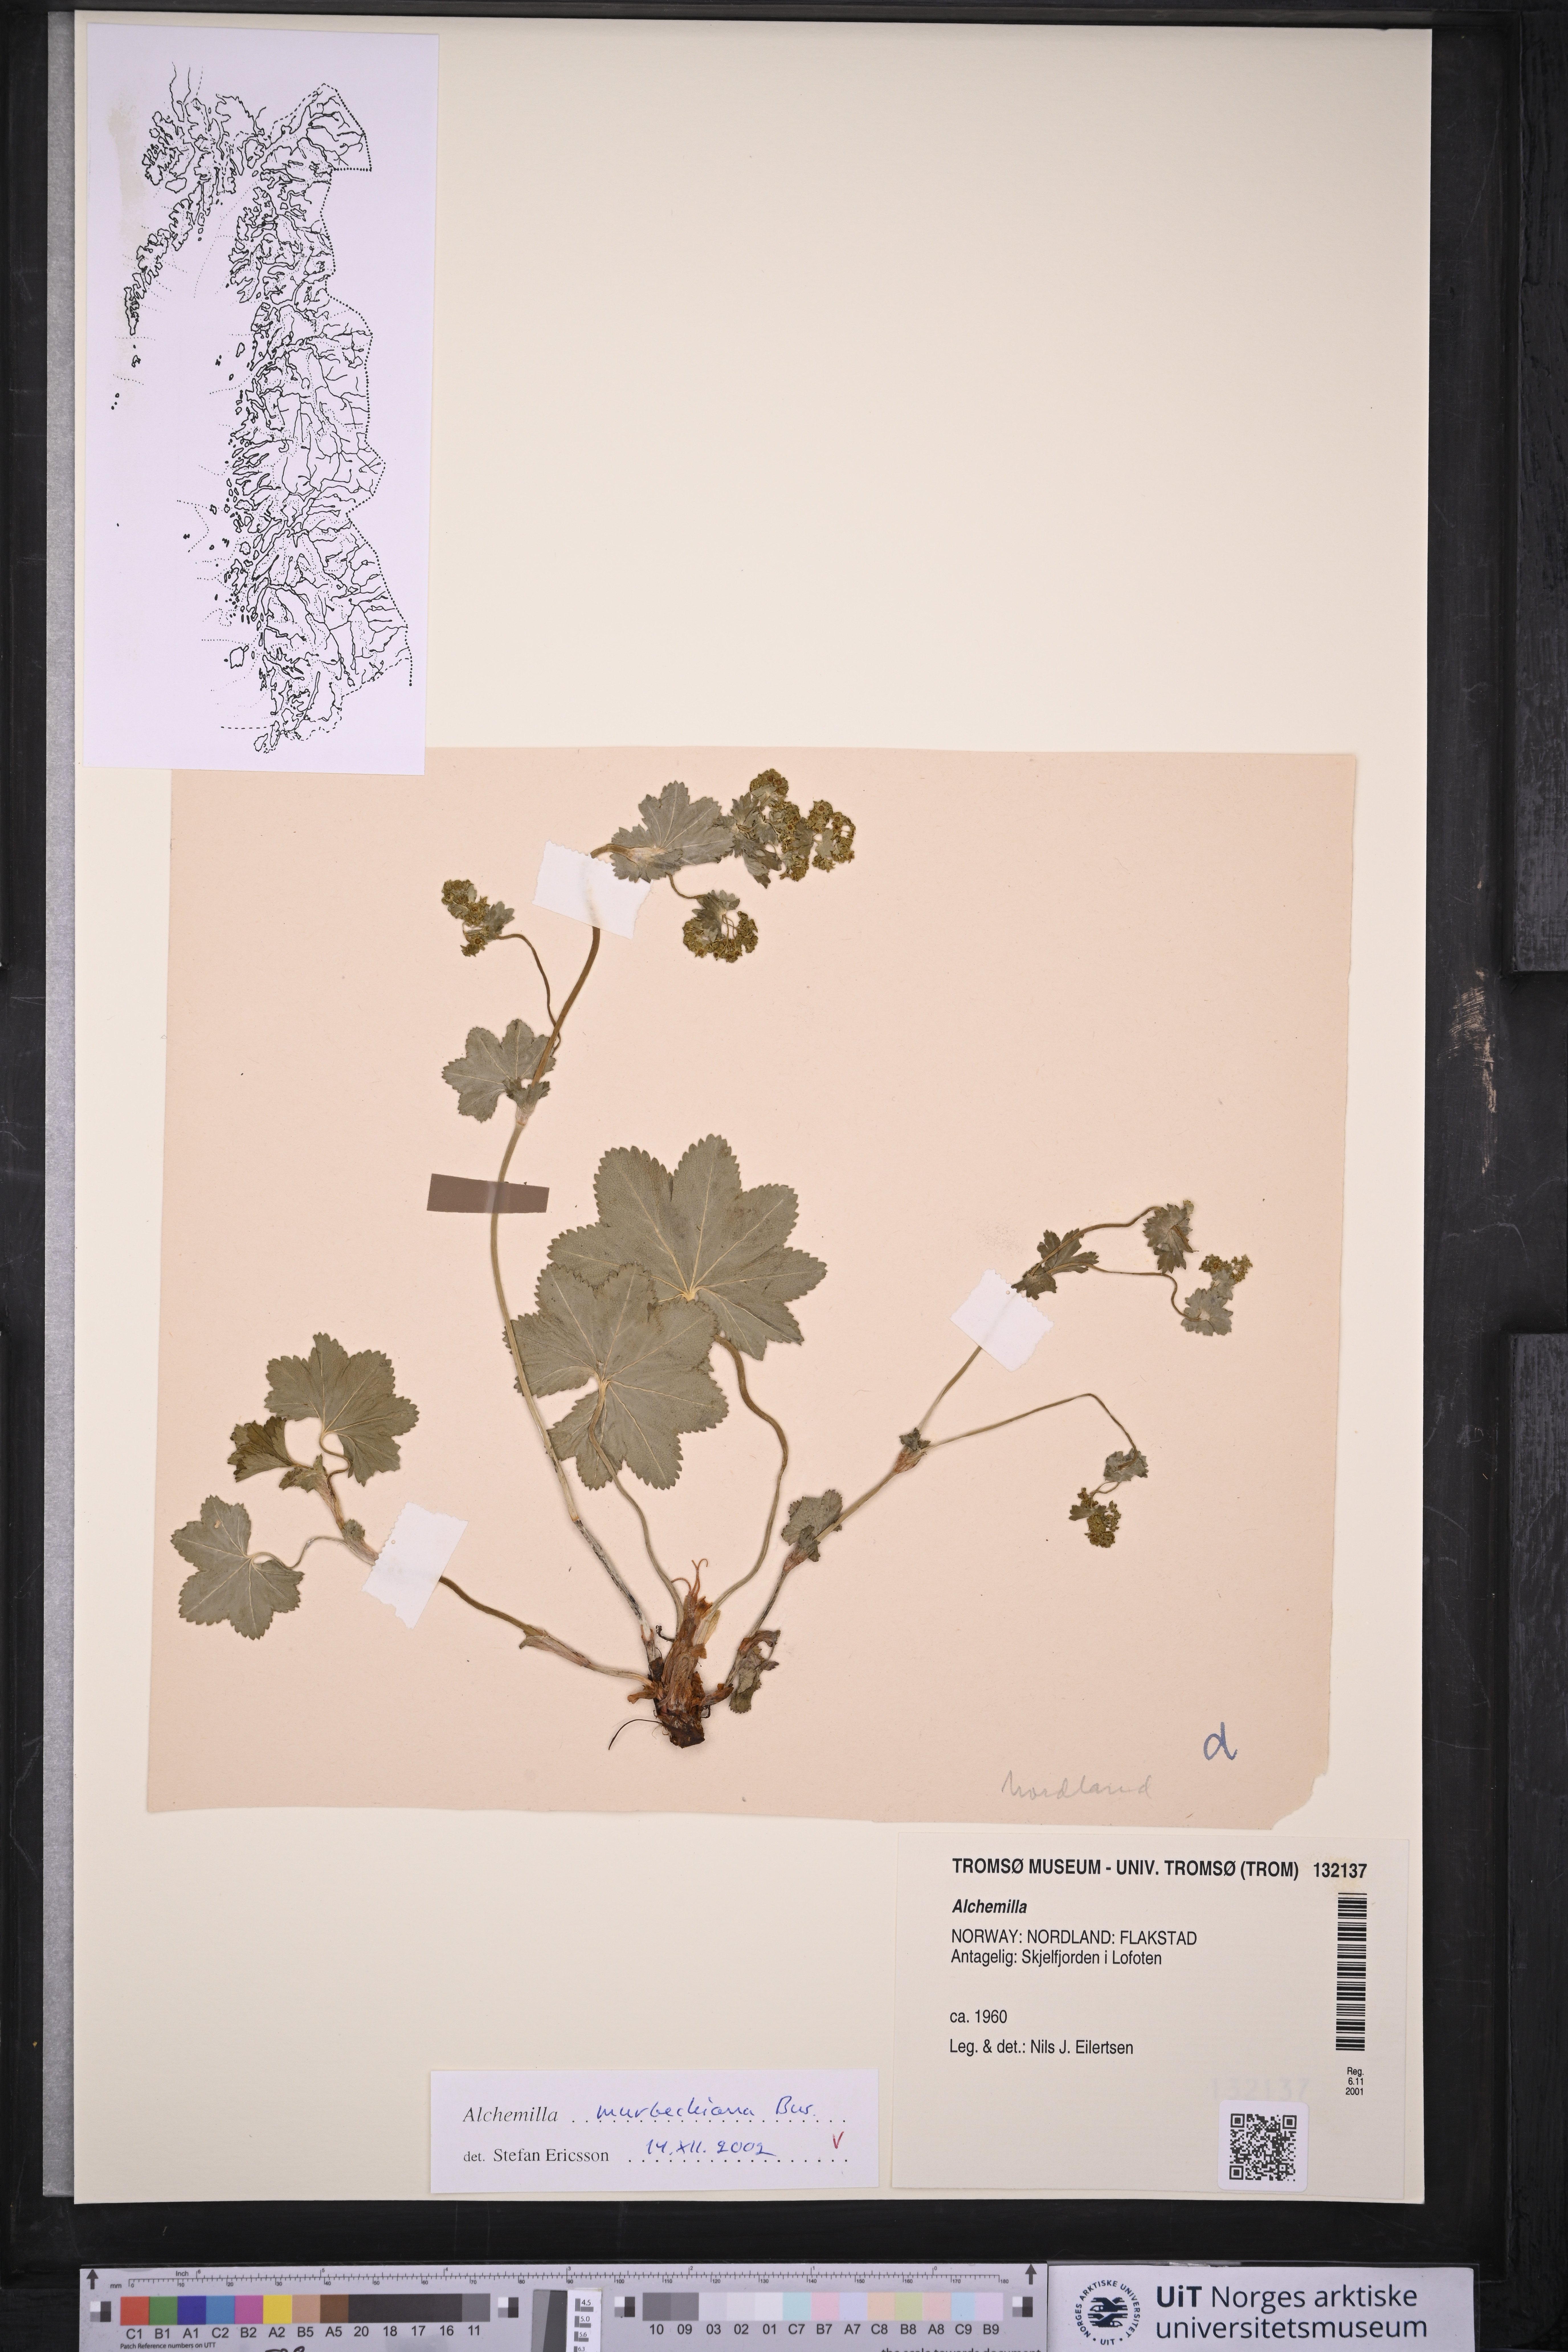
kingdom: Plantae
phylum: Tracheophyta
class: Magnoliopsida
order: Rosales
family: Rosaceae
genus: Alchemilla
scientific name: Alchemilla murbeckiana
